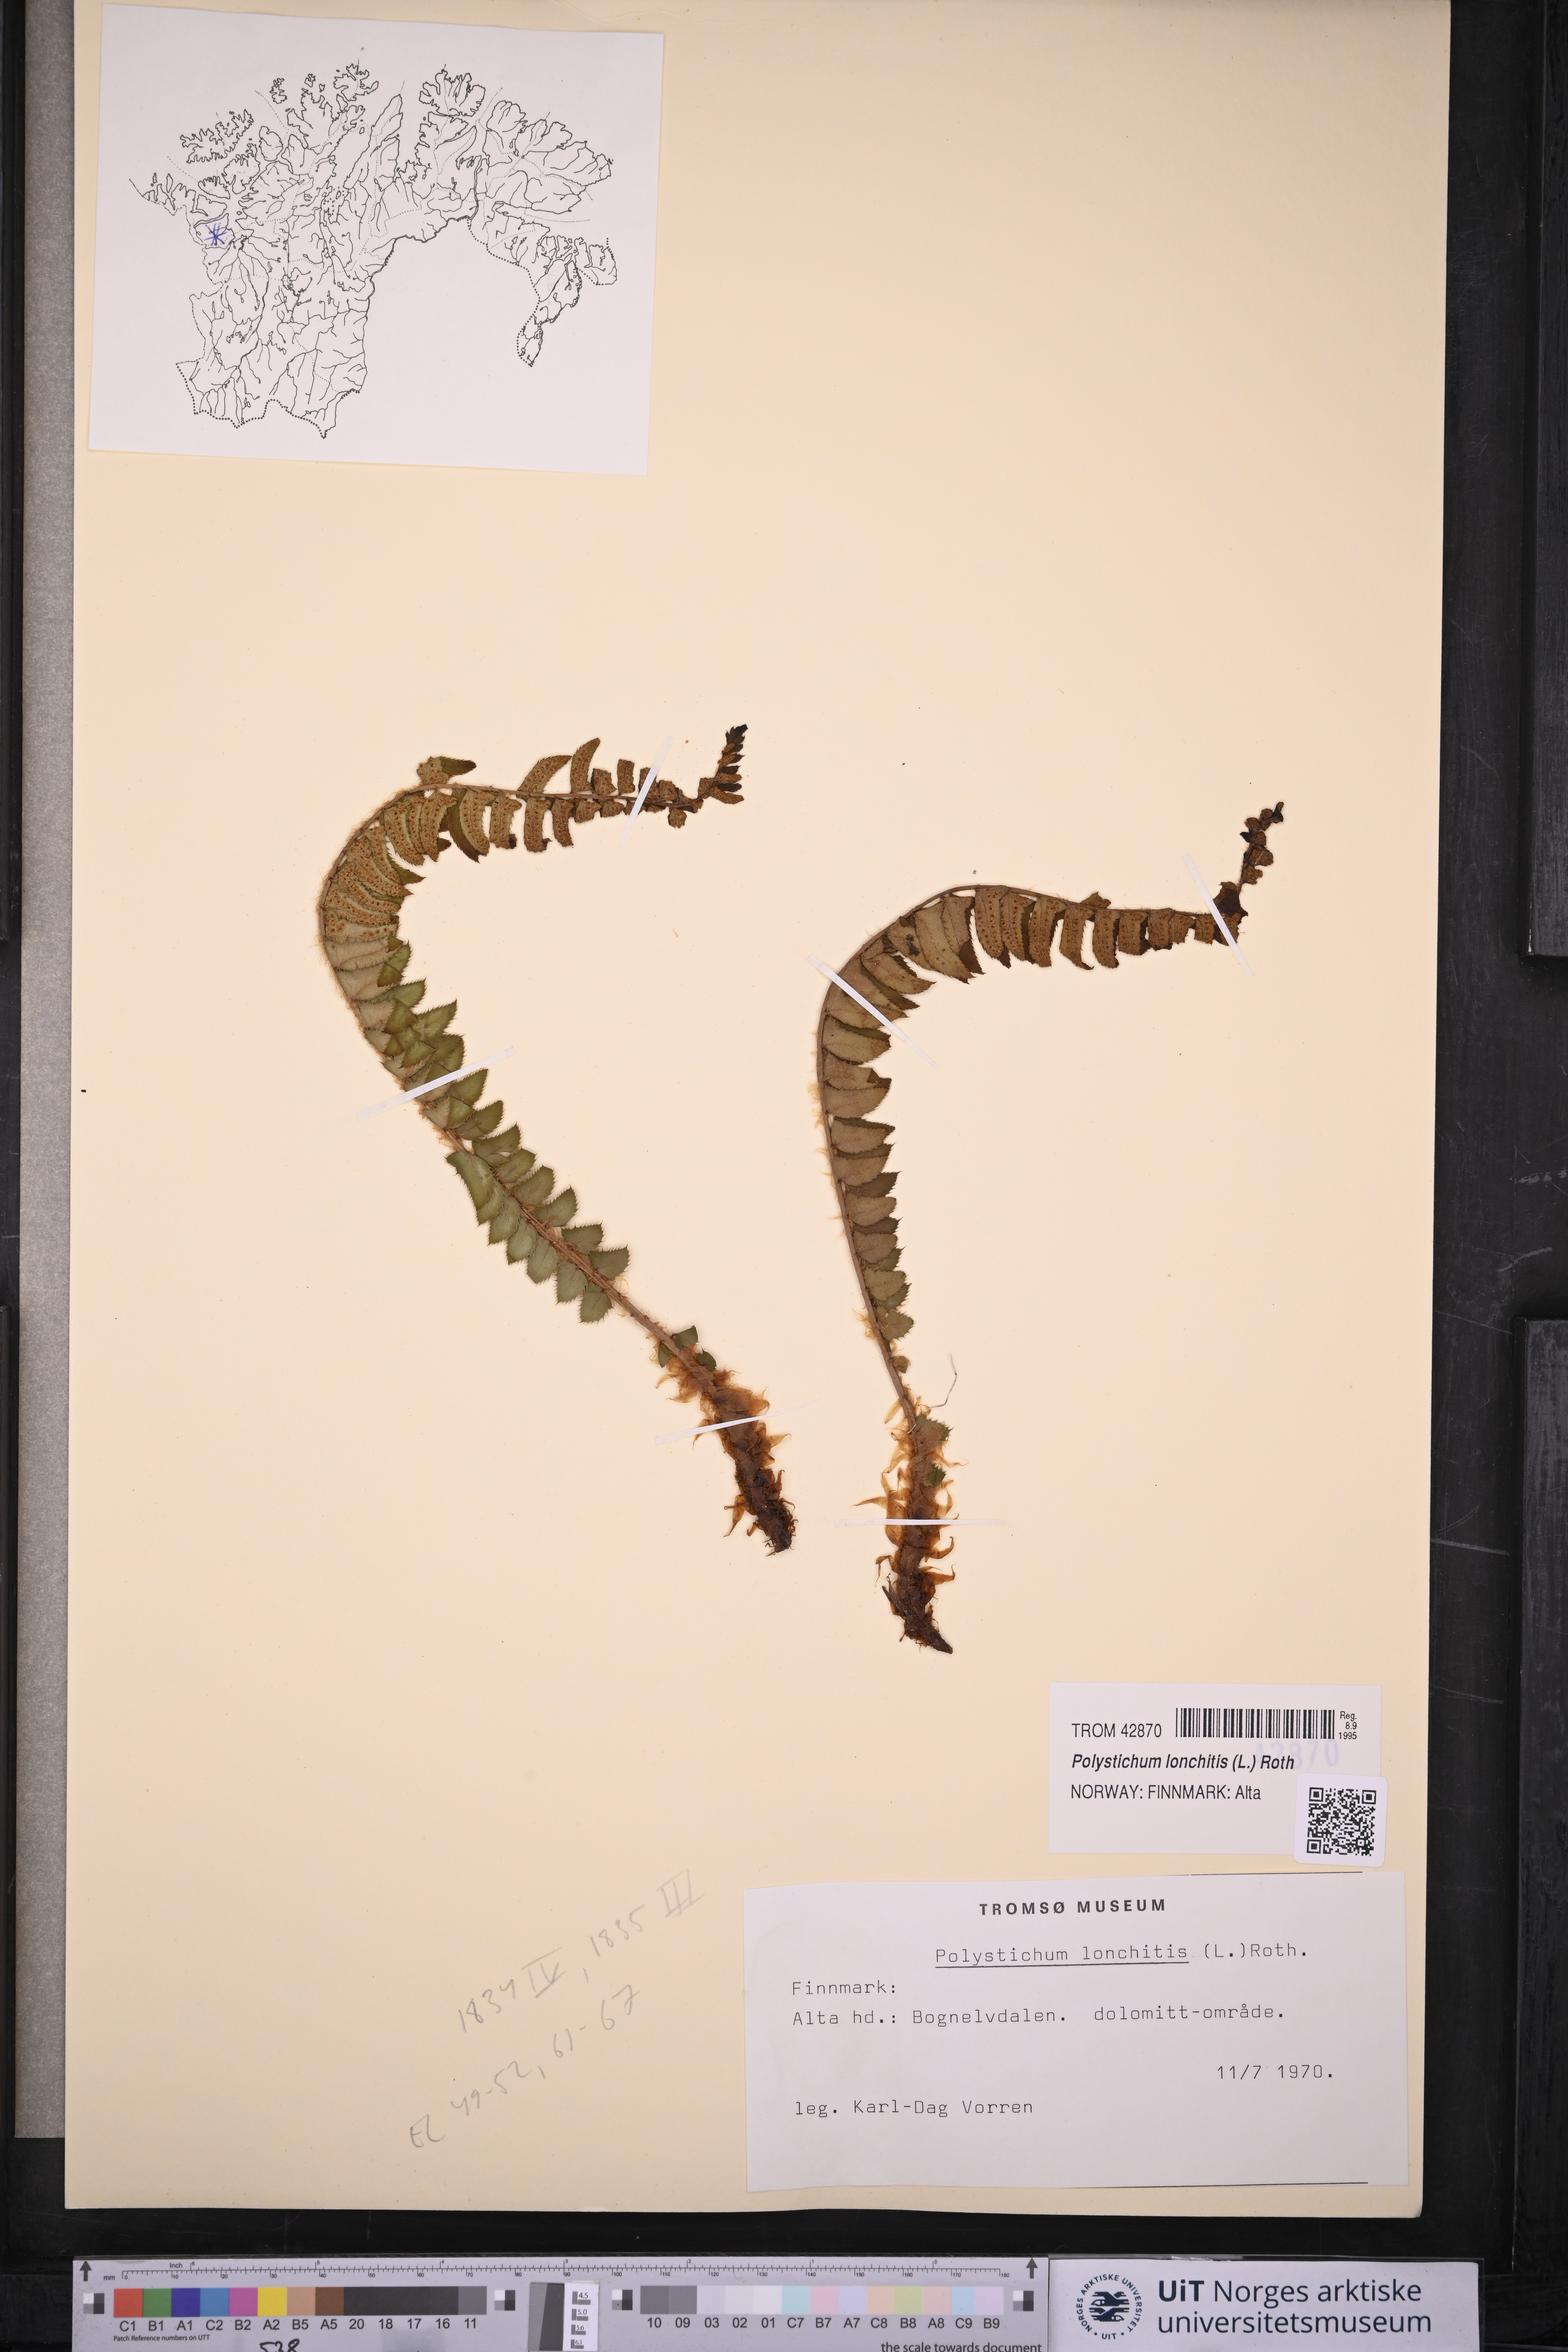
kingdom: Plantae
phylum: Tracheophyta
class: Polypodiopsida
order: Polypodiales
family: Dryopteridaceae
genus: Polystichum
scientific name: Polystichum lonchitis
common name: Holly fern
